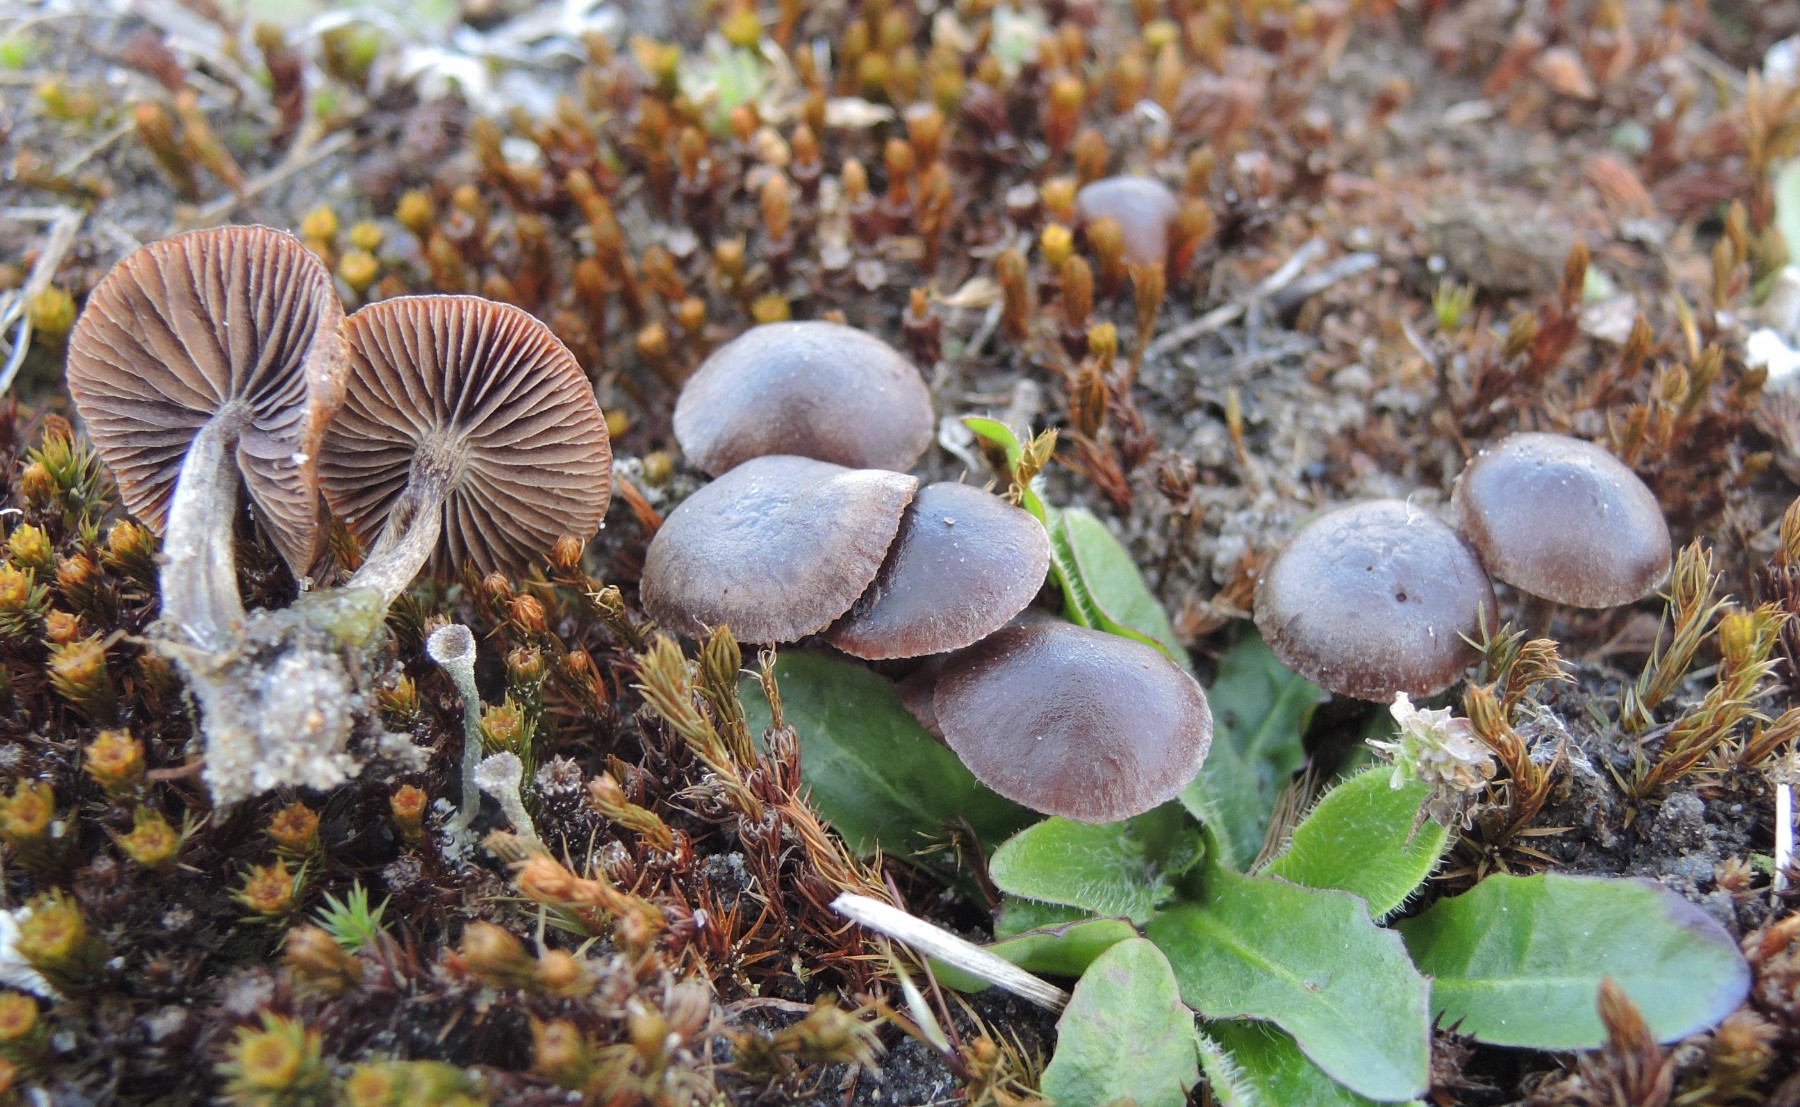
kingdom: Fungi
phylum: Basidiomycota
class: Agaricomycetes
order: Agaricales
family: Strophariaceae
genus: Deconica
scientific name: Deconica montana
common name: rødbrun stråhat
